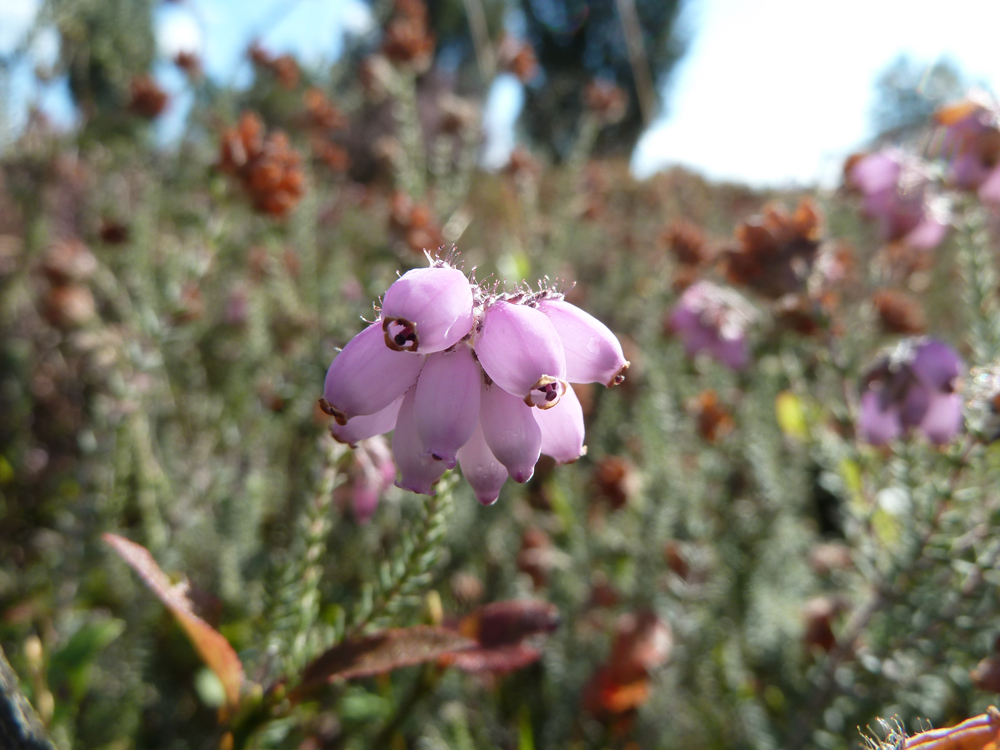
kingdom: Plantae
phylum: Tracheophyta
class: Magnoliopsida
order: Ericales
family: Ericaceae
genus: Erica
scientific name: Erica tetralix
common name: Cross-leaved heath
